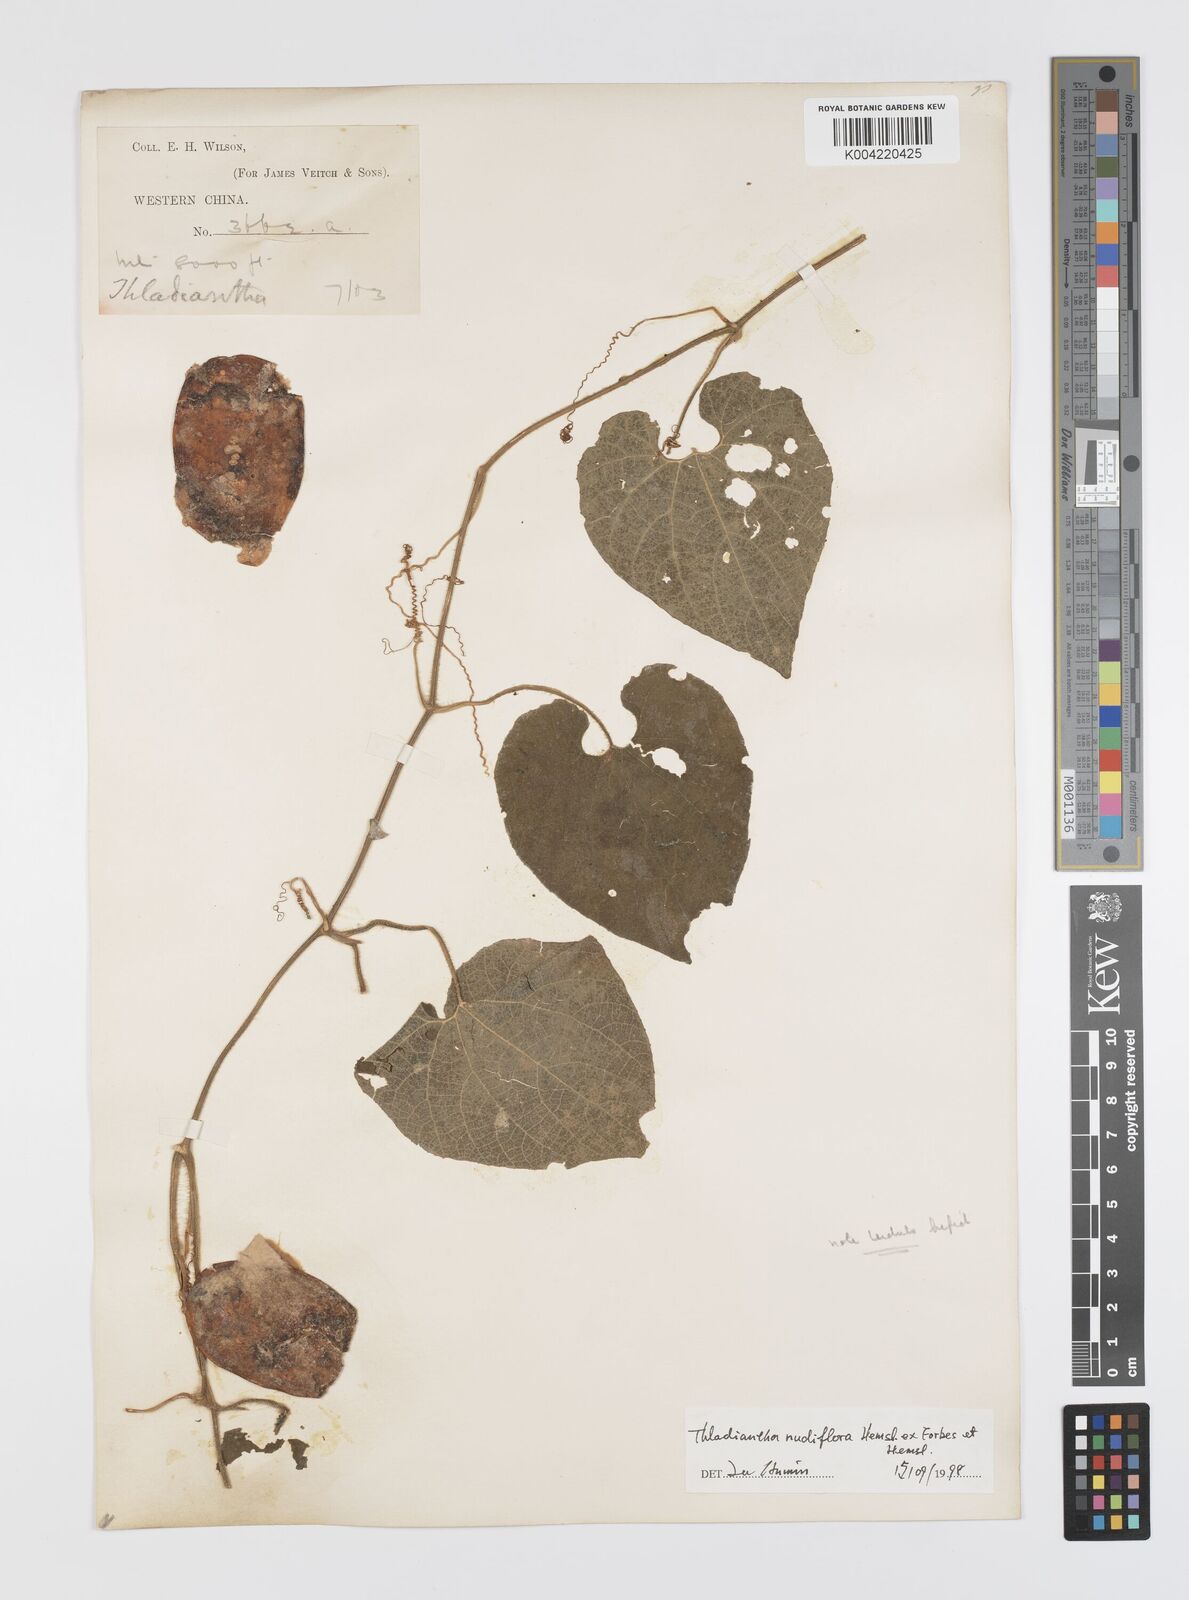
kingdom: Plantae
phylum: Tracheophyta
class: Magnoliopsida
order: Cucurbitales
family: Cucurbitaceae
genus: Thladiantha
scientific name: Thladiantha nudiflora
